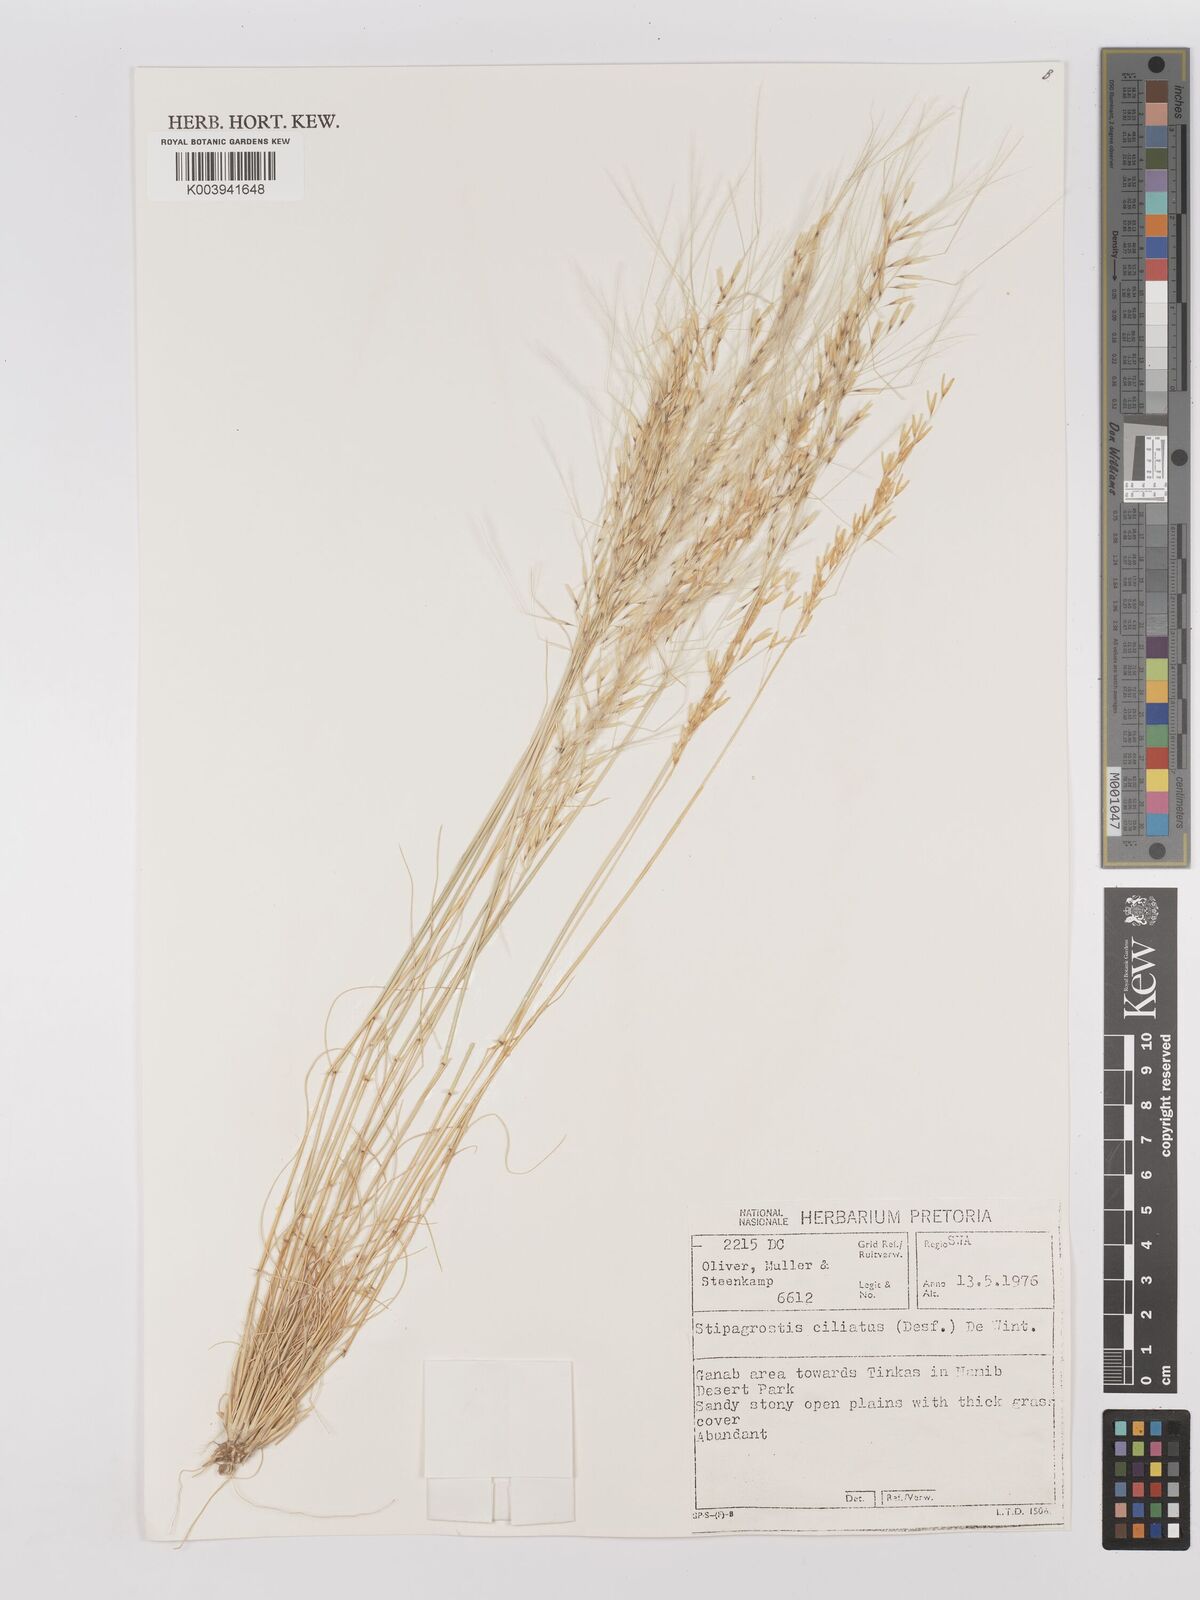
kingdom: Plantae
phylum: Tracheophyta
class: Liliopsida
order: Poales
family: Poaceae
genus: Stipagrostis
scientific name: Stipagrostis ciliata
